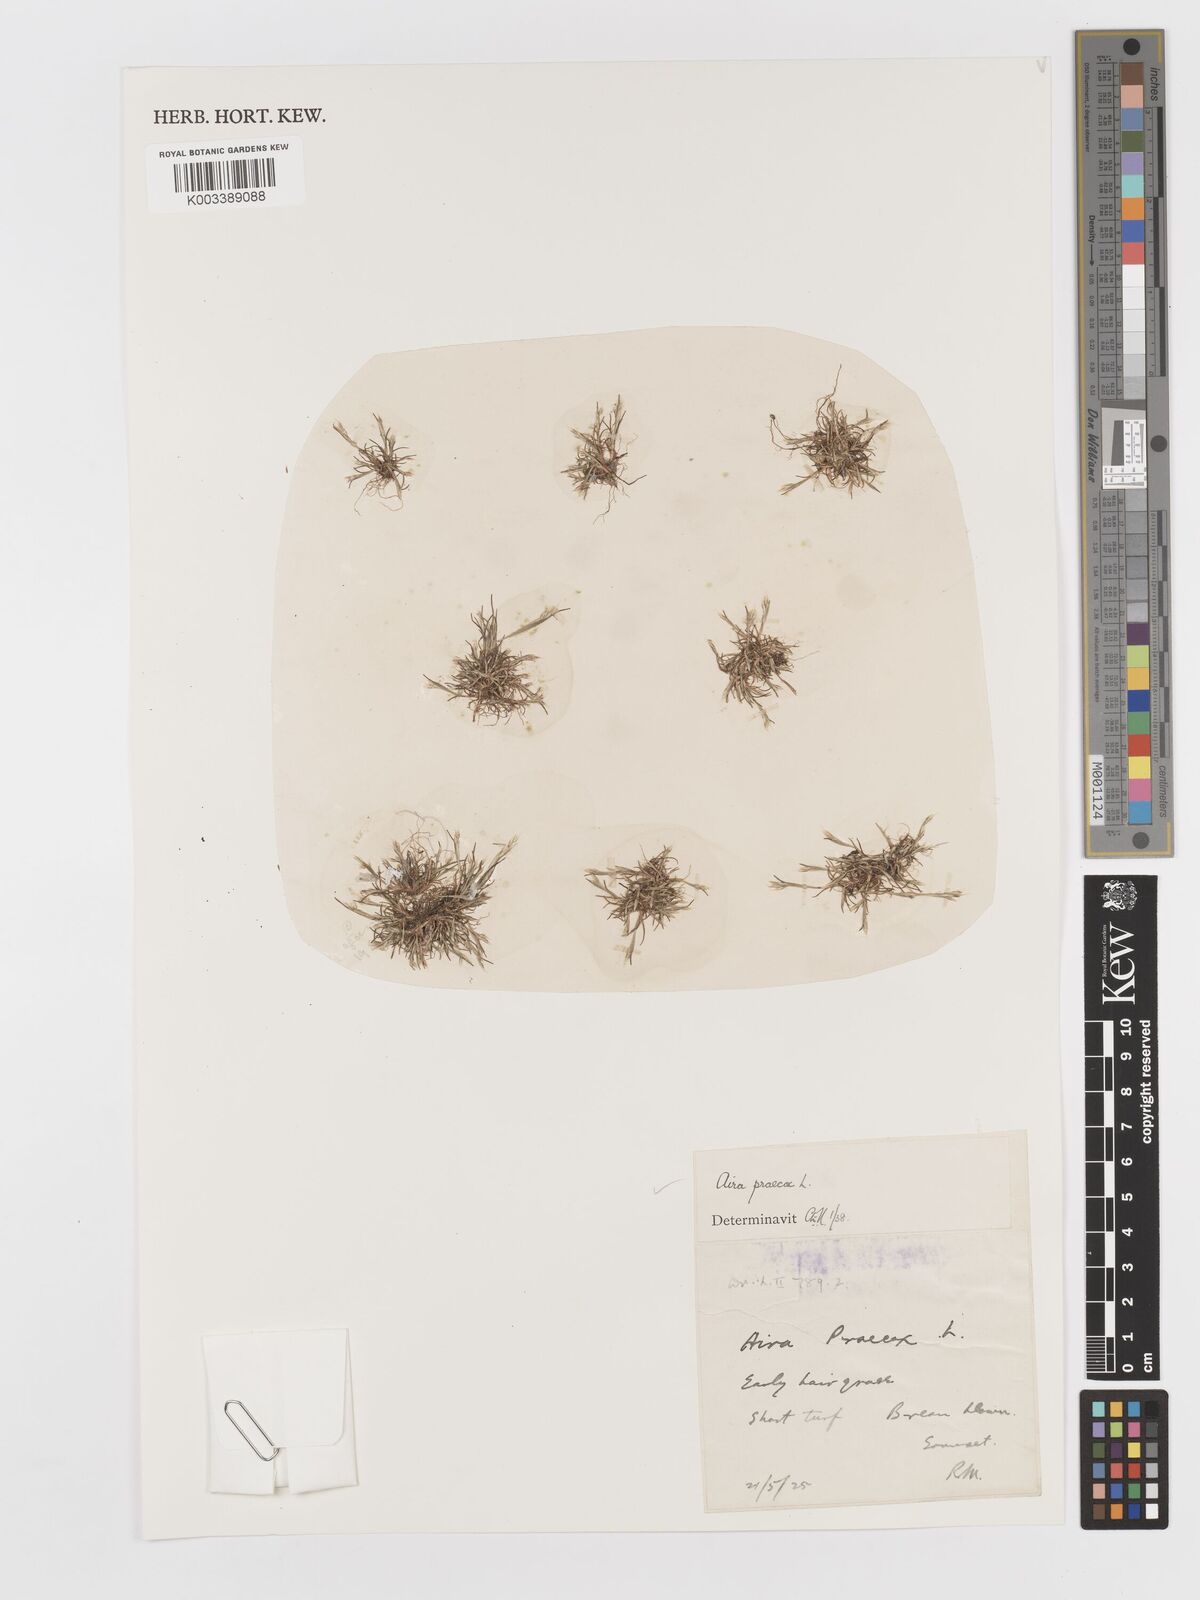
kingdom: Plantae
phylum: Tracheophyta
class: Liliopsida
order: Poales
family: Poaceae
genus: Aira
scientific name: Aira praecox
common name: Early hair-grass
